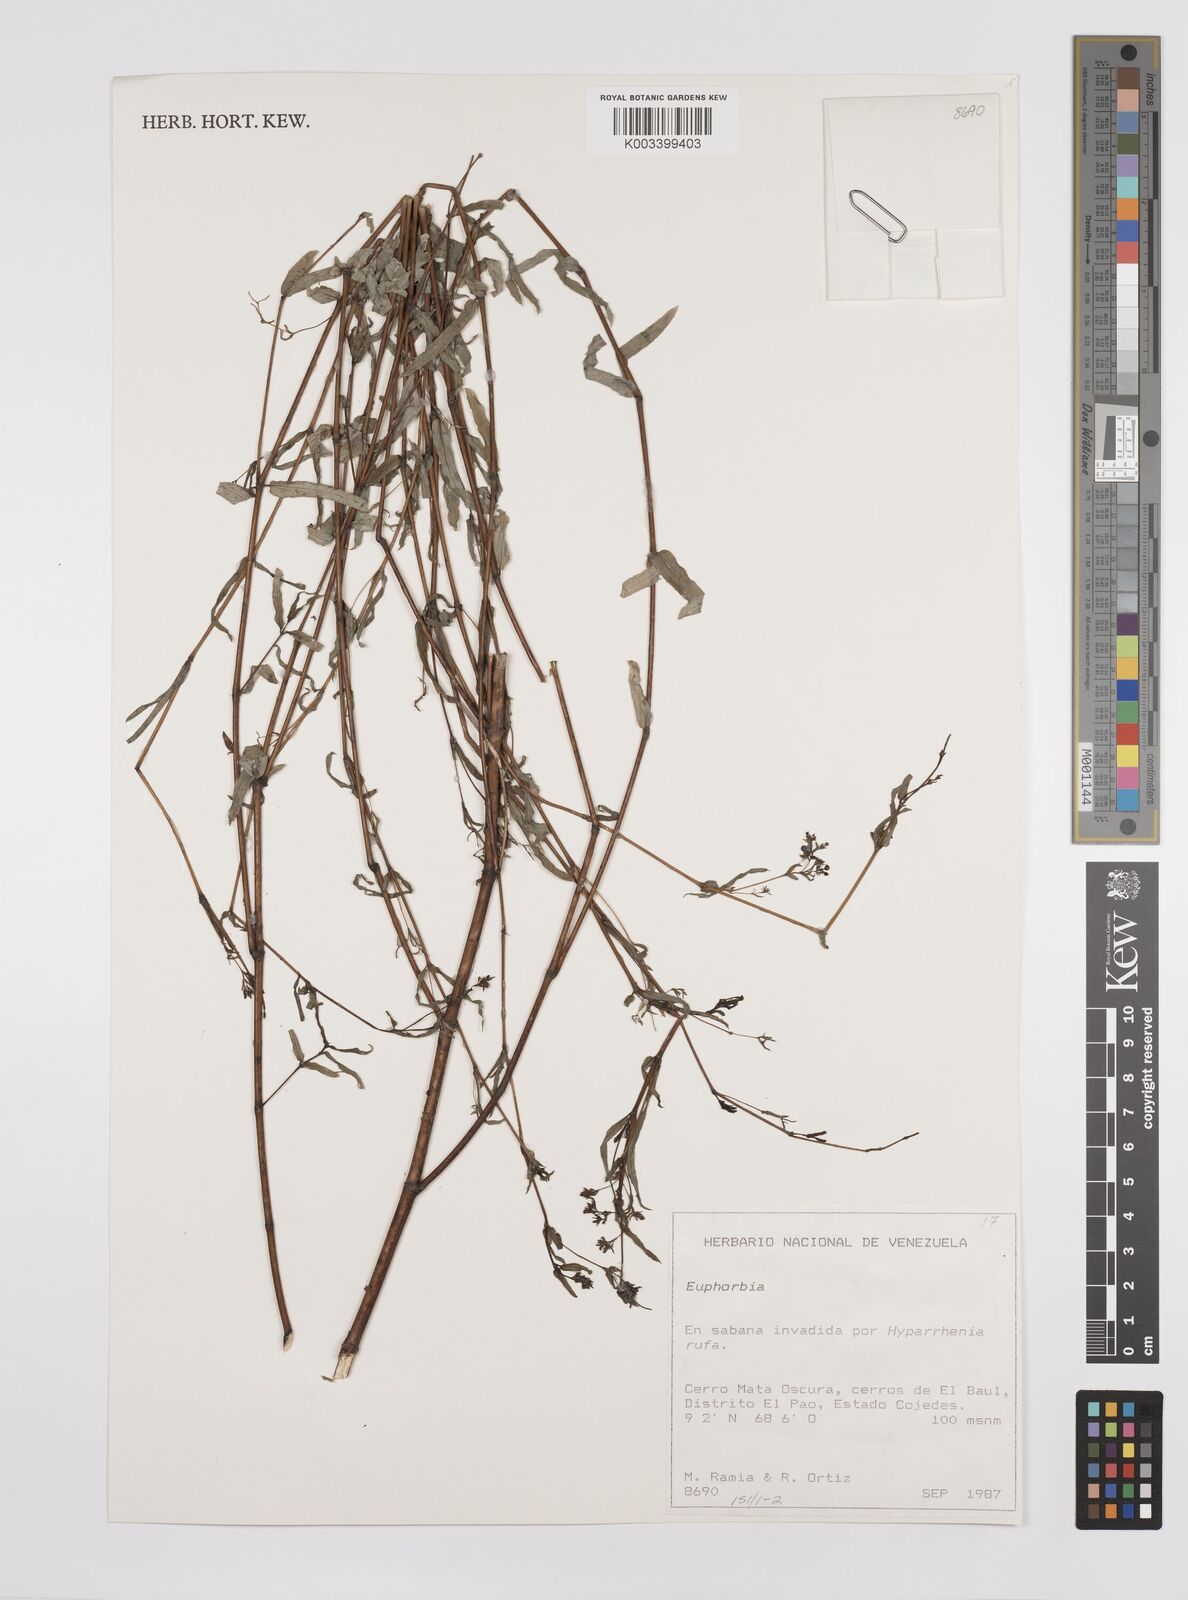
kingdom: Plantae
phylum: Tracheophyta
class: Magnoliopsida
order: Malpighiales
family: Euphorbiaceae
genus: Euphorbia
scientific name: Euphorbia
